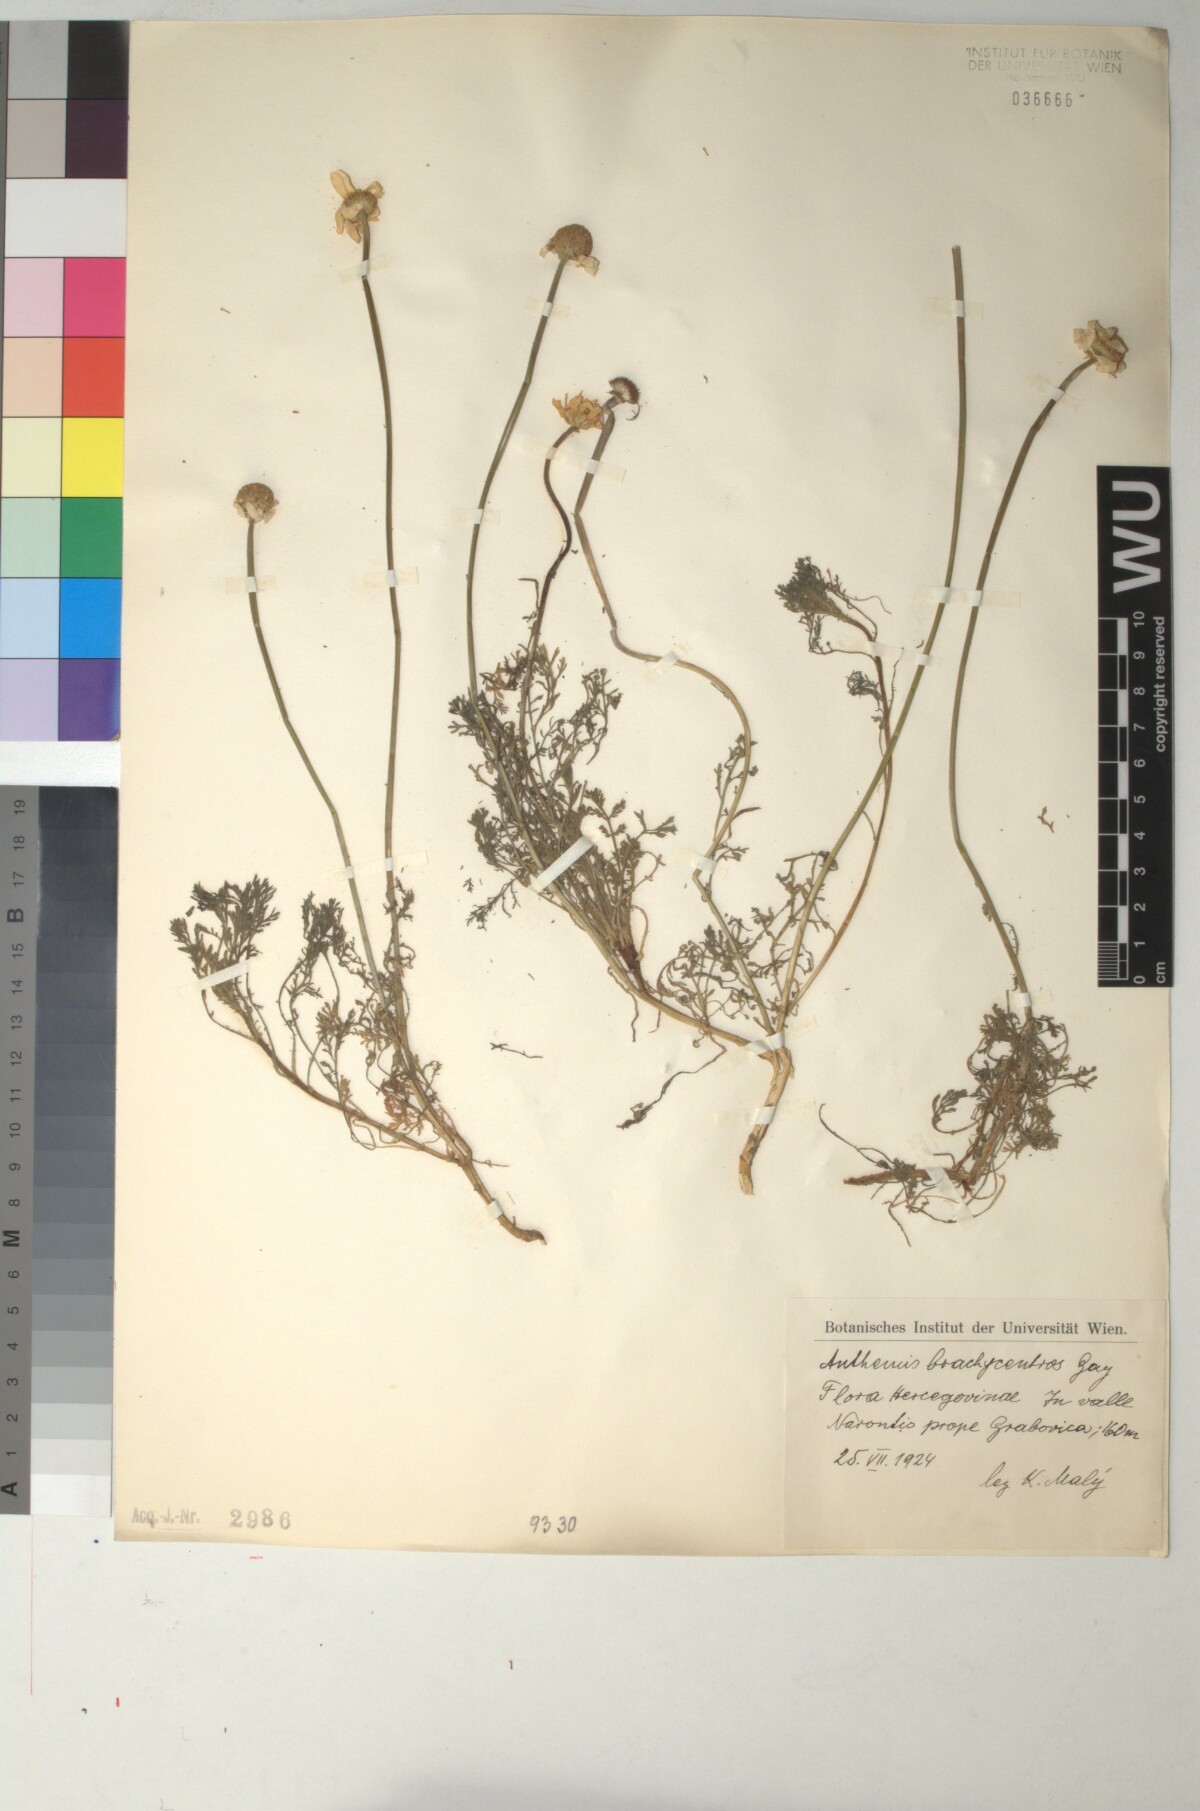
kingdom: Plantae
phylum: Tracheophyta
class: Magnoliopsida
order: Asterales
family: Asteraceae
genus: Cota
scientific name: Cota segetalis
